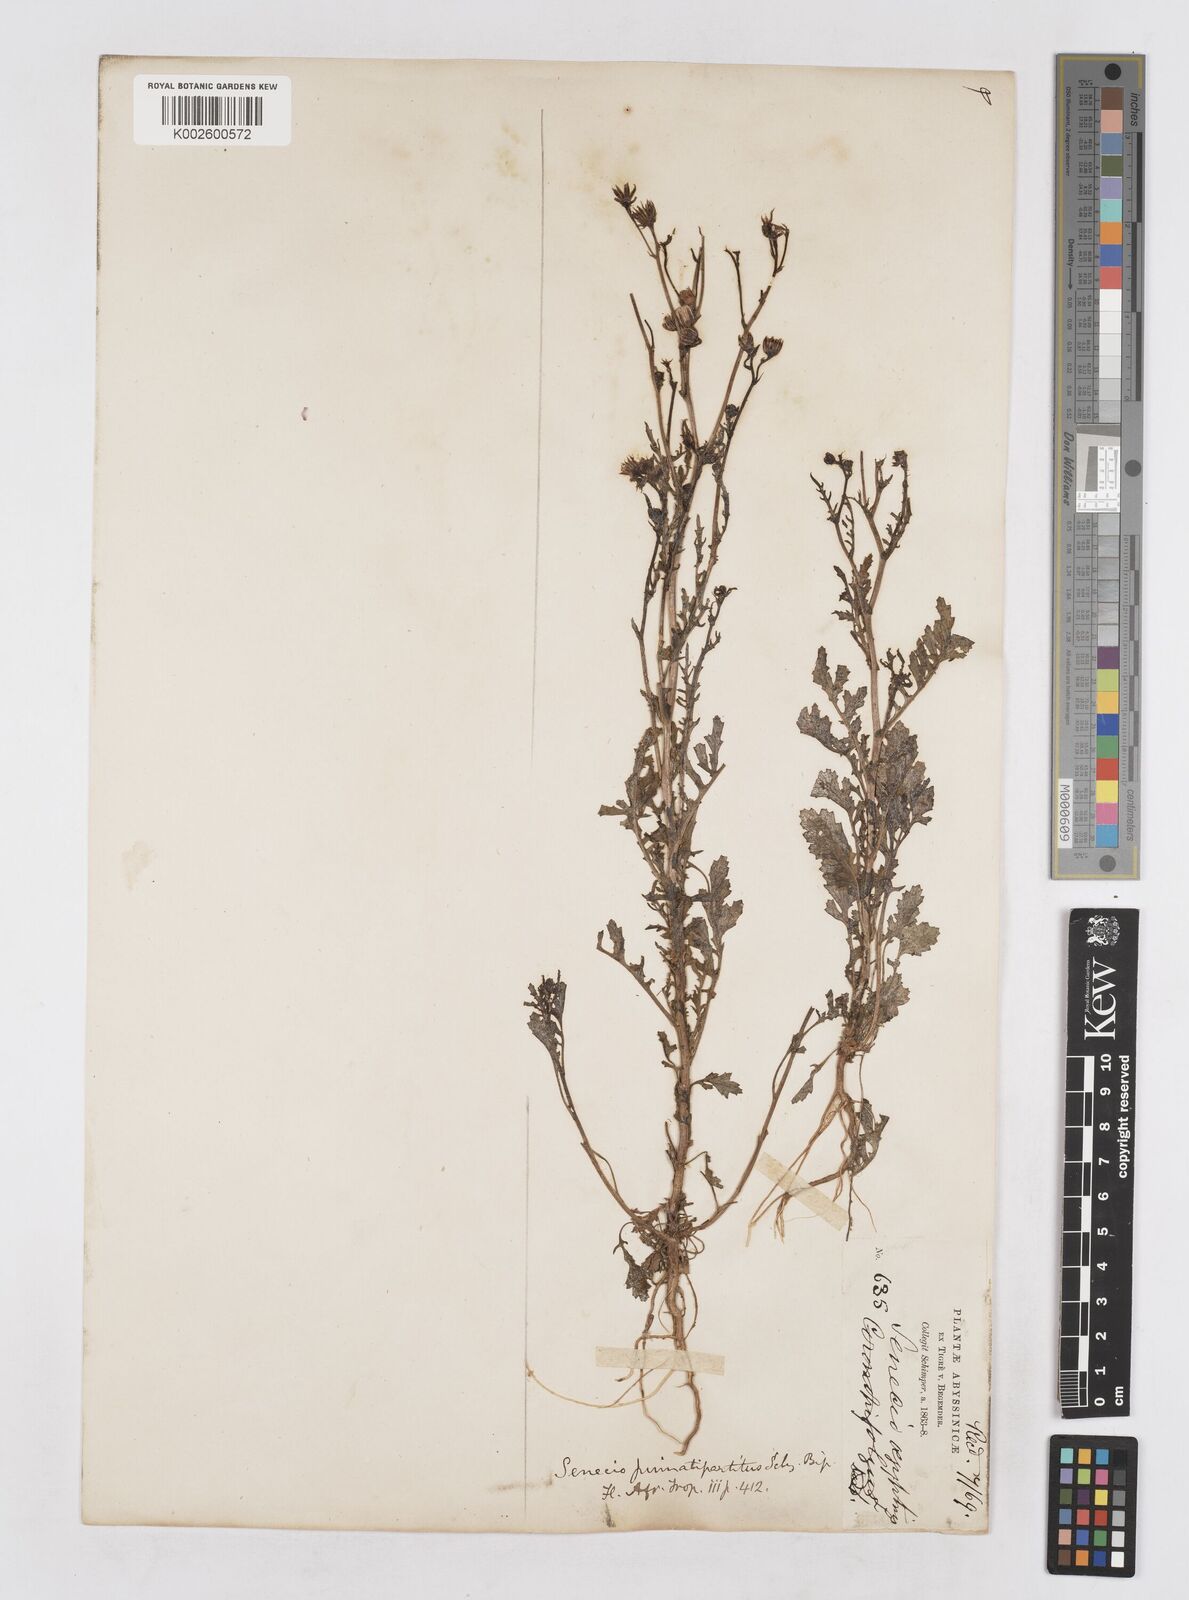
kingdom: Plantae
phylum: Tracheophyta
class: Magnoliopsida
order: Asterales
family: Asteraceae
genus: Senecio
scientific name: Senecio pinnatipartitus
